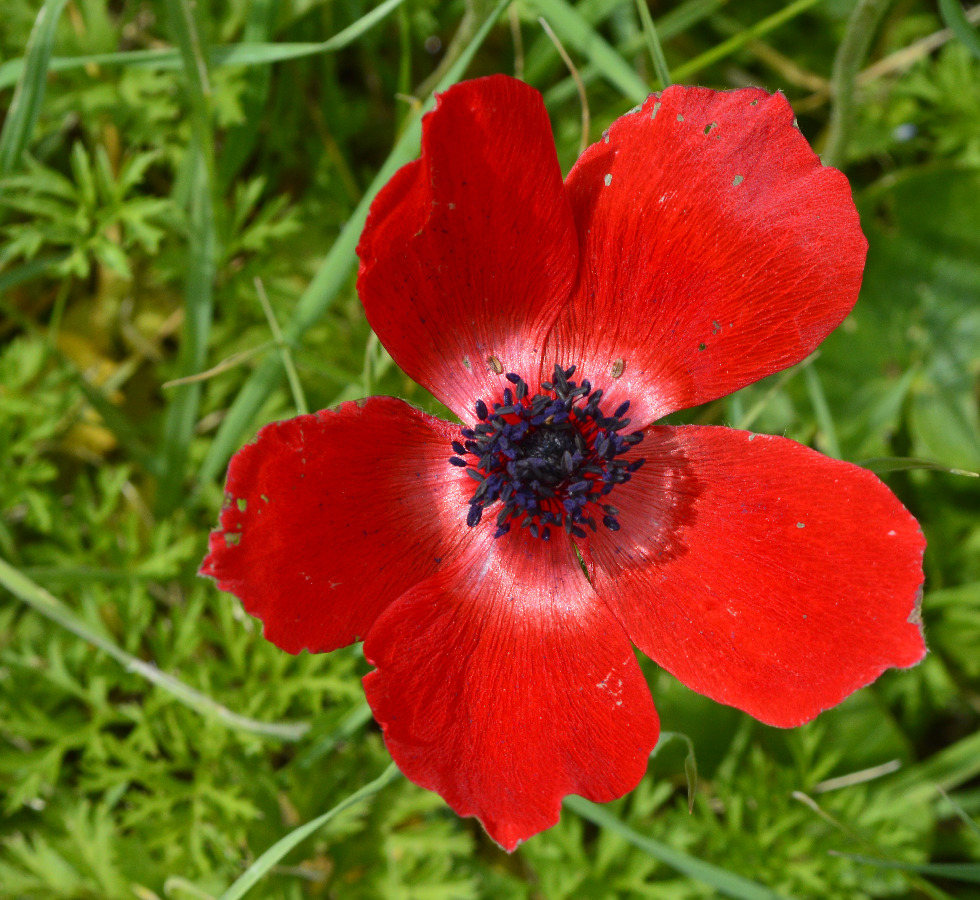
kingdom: Plantae
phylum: Tracheophyta
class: Magnoliopsida
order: Ranunculales
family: Ranunculaceae
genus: Anemone
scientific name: Anemone coronaria
